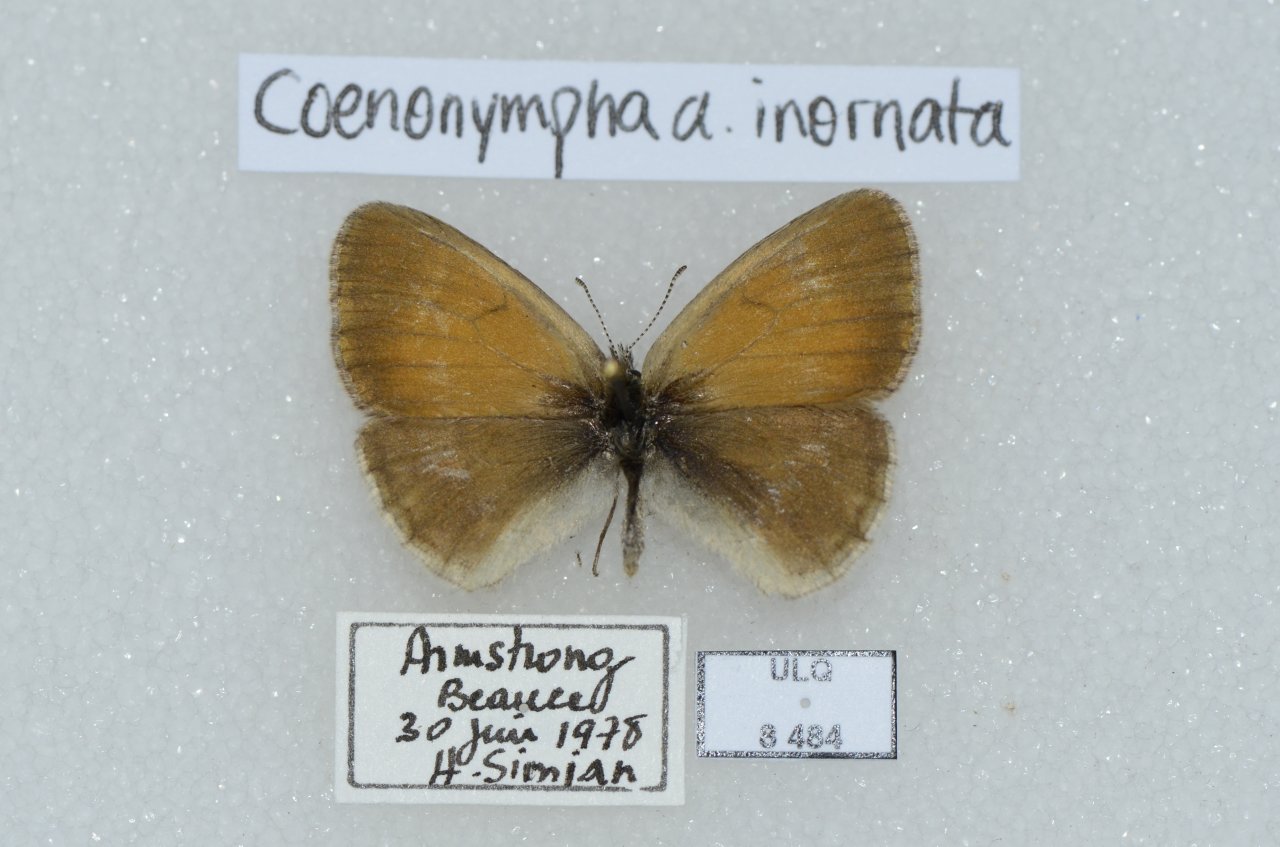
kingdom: Animalia
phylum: Arthropoda
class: Insecta
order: Lepidoptera
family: Nymphalidae
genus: Coenonympha
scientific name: Coenonympha tullia
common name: Large Heath
